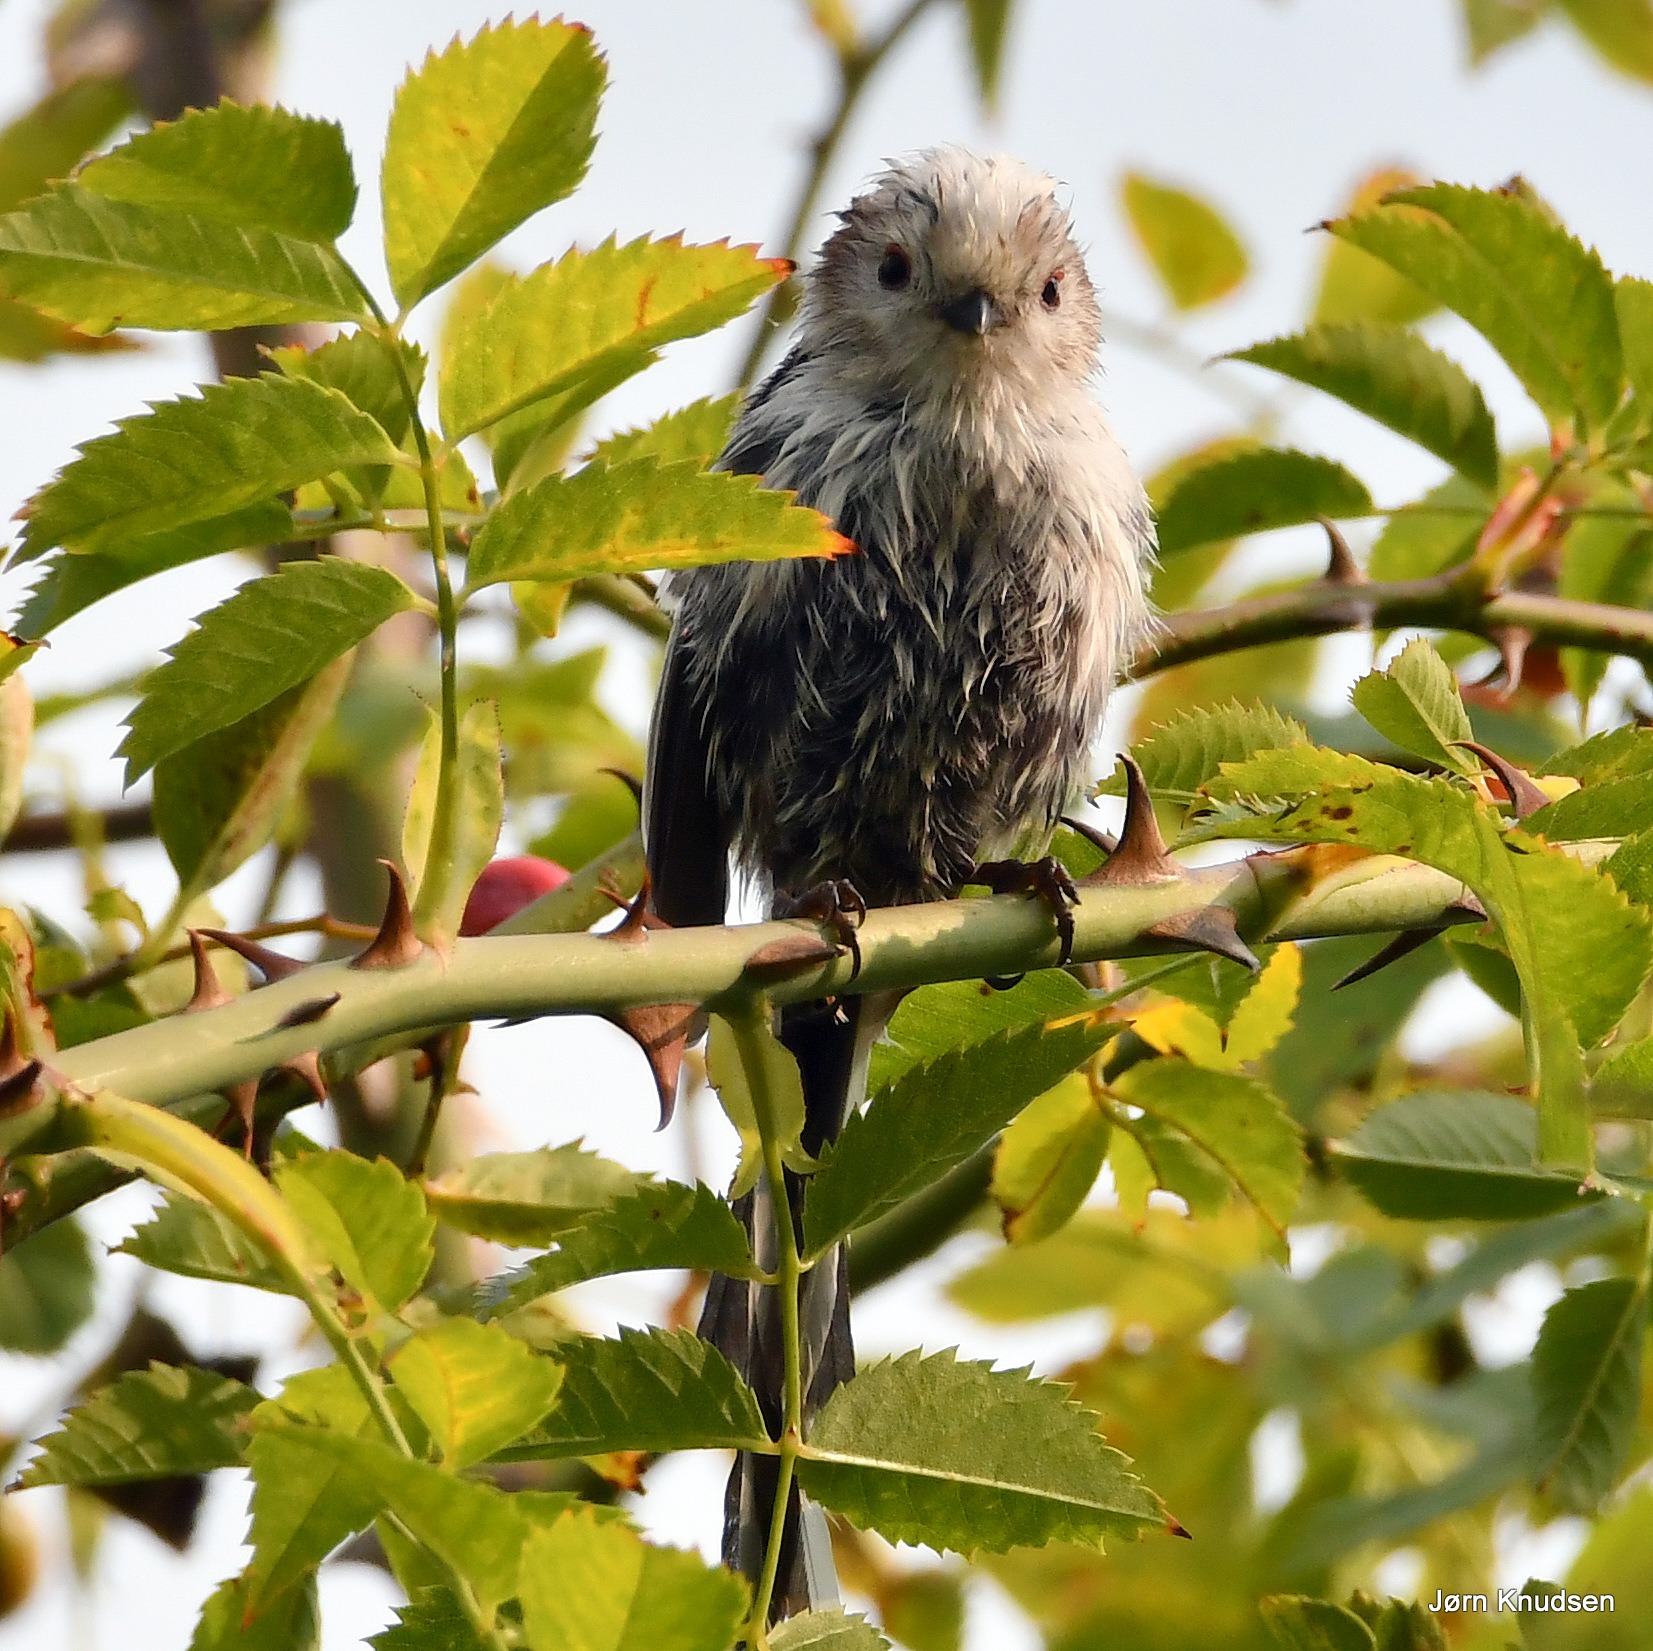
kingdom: Animalia
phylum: Chordata
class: Aves
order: Passeriformes
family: Aegithalidae
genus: Aegithalos
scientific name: Aegithalos caudatus
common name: Halemejse
